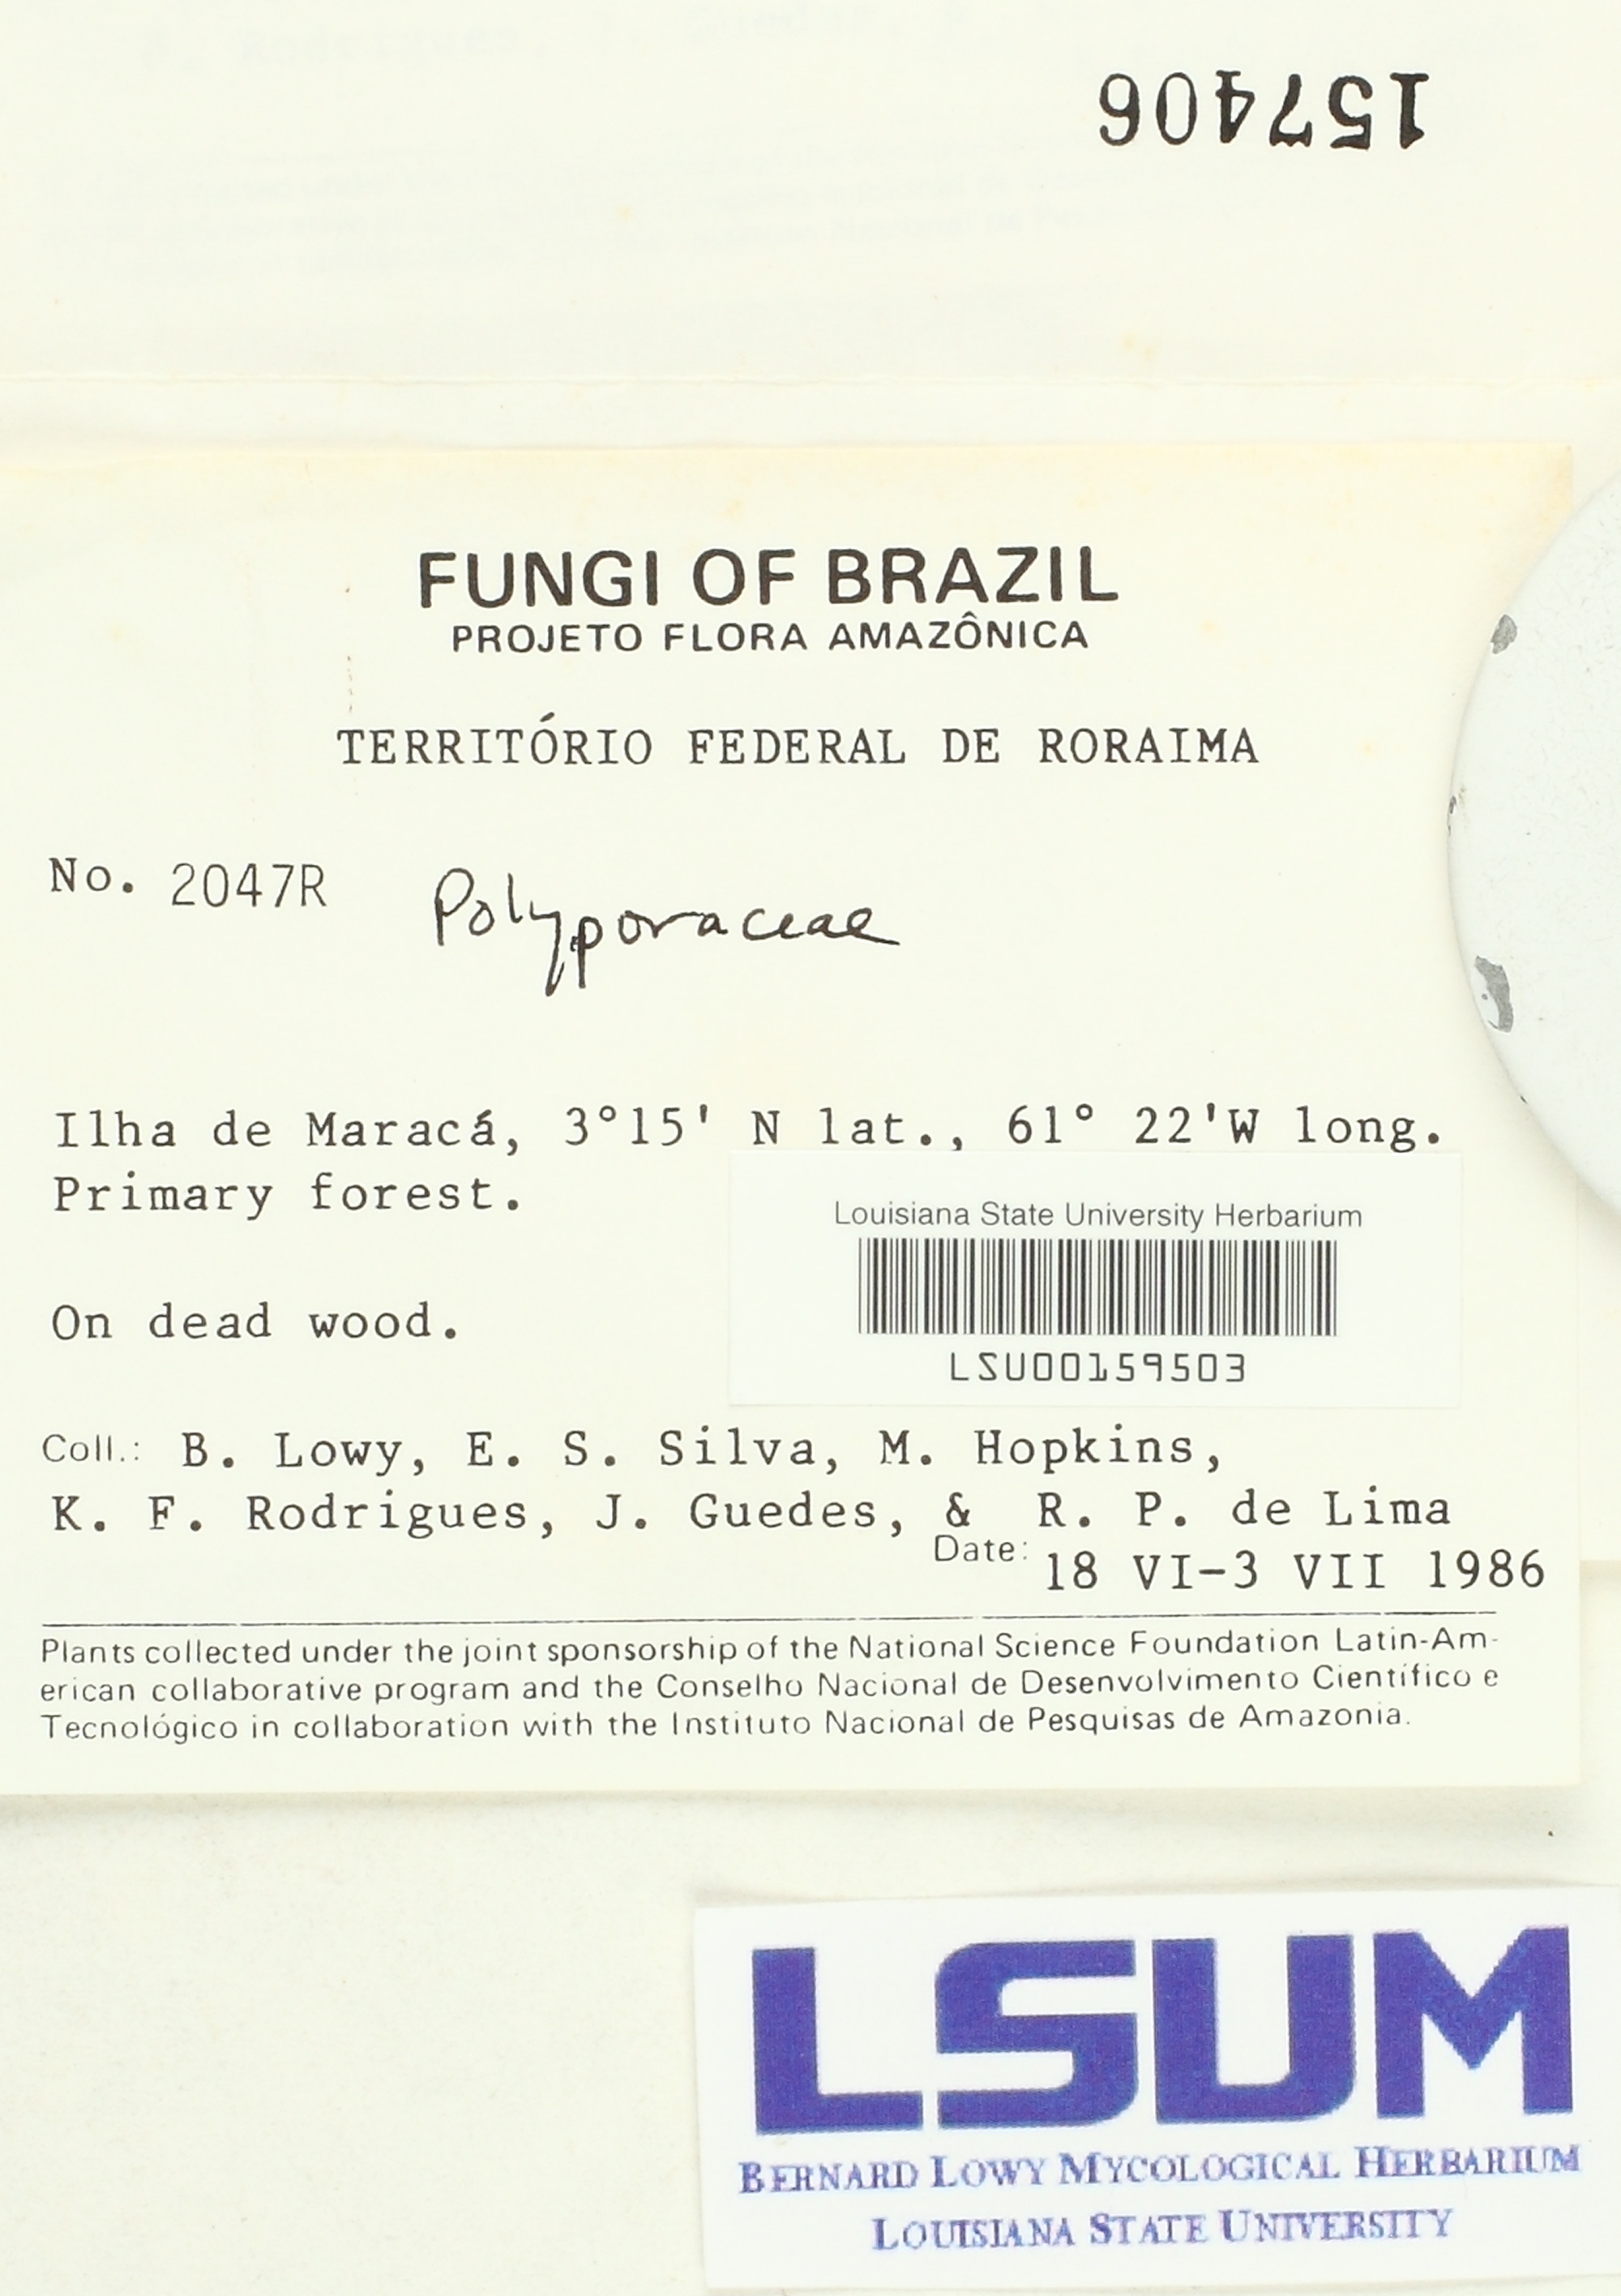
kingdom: Fungi
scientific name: Fungi
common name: Fungi
